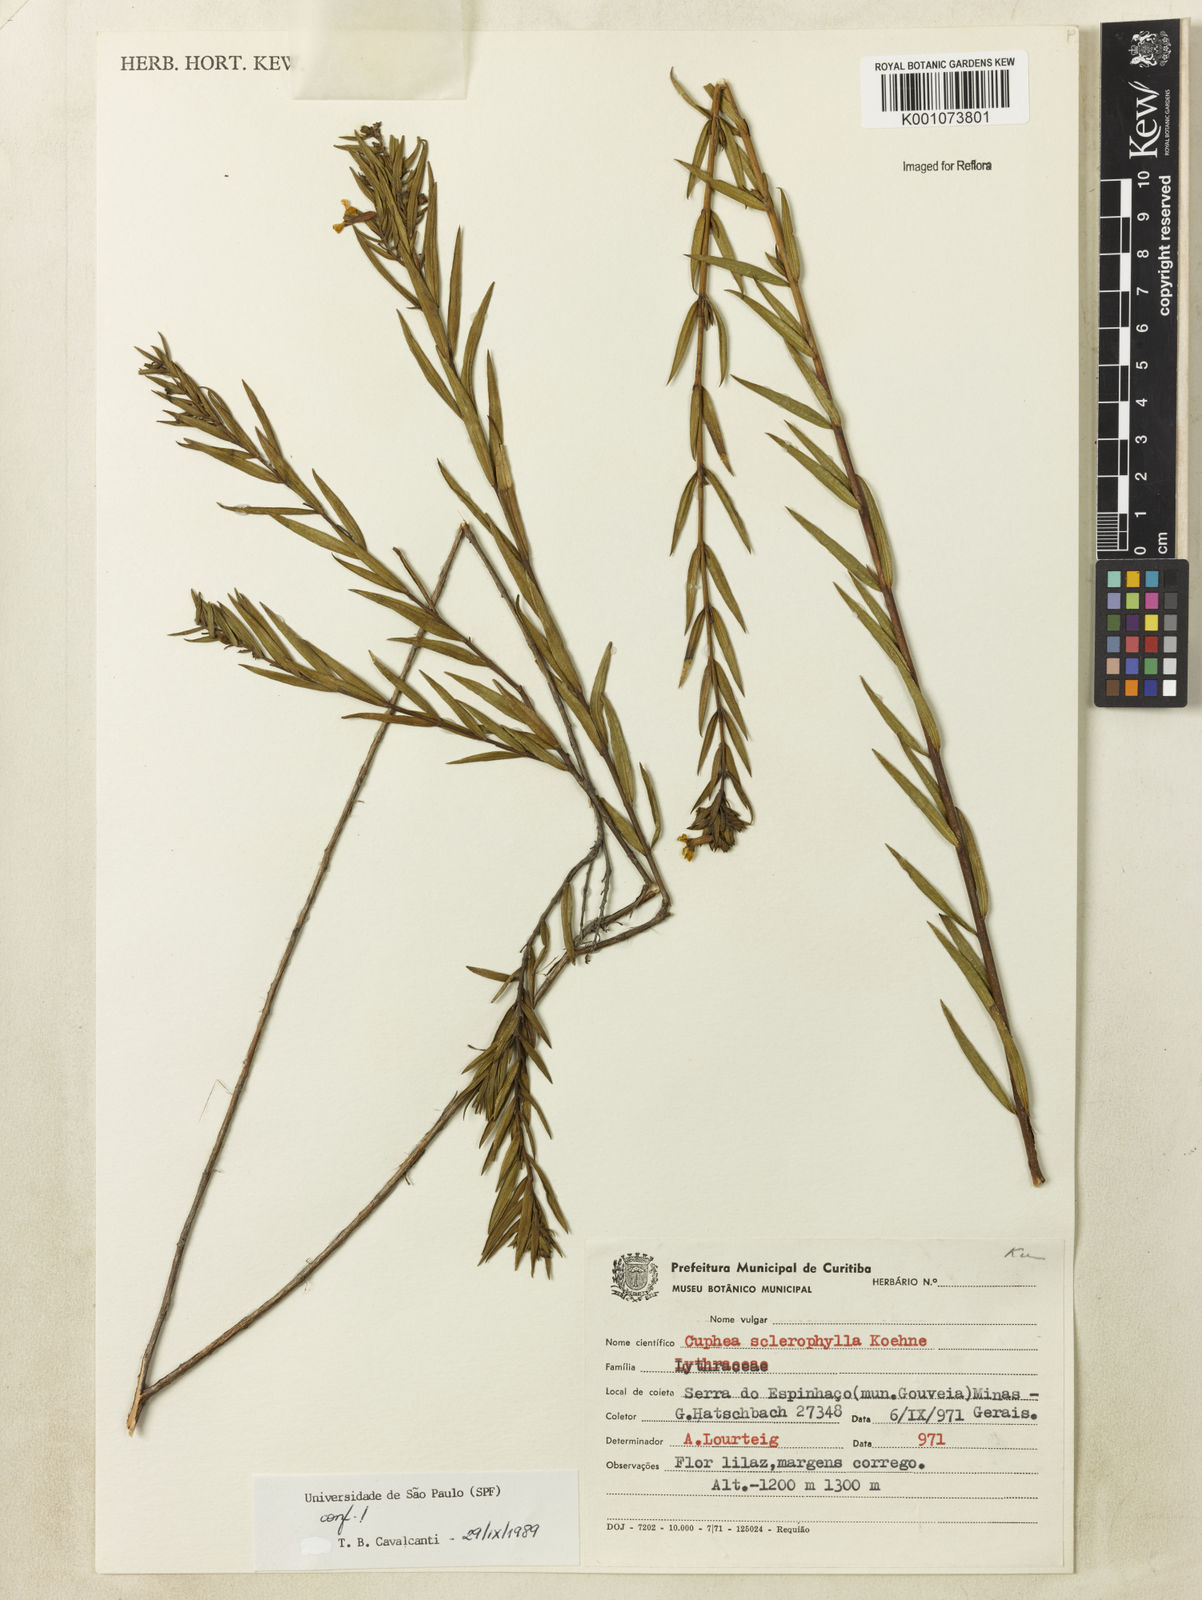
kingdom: Plantae
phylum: Tracheophyta
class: Magnoliopsida
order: Myrtales
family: Lythraceae
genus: Cuphea
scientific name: Cuphea sclerophylla
